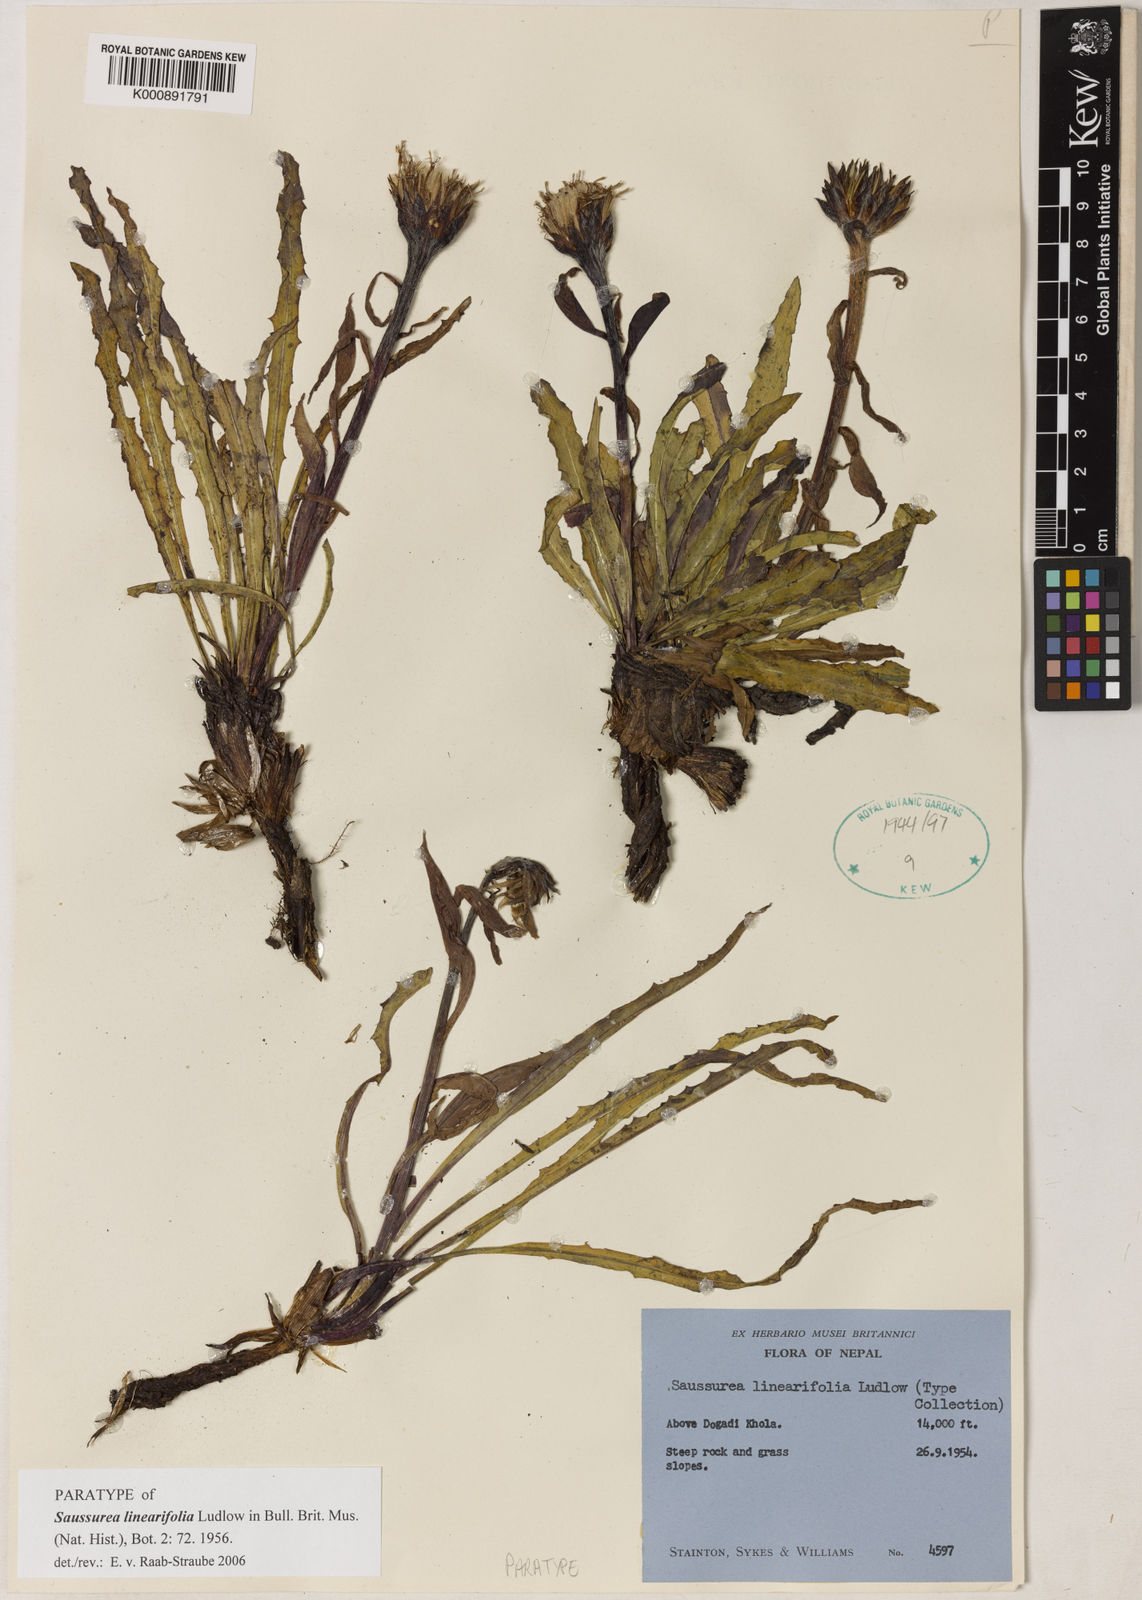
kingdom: Plantae
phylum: Tracheophyta
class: Magnoliopsida
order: Asterales
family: Asteraceae
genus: Saussurea
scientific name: Saussurea linearifolia
